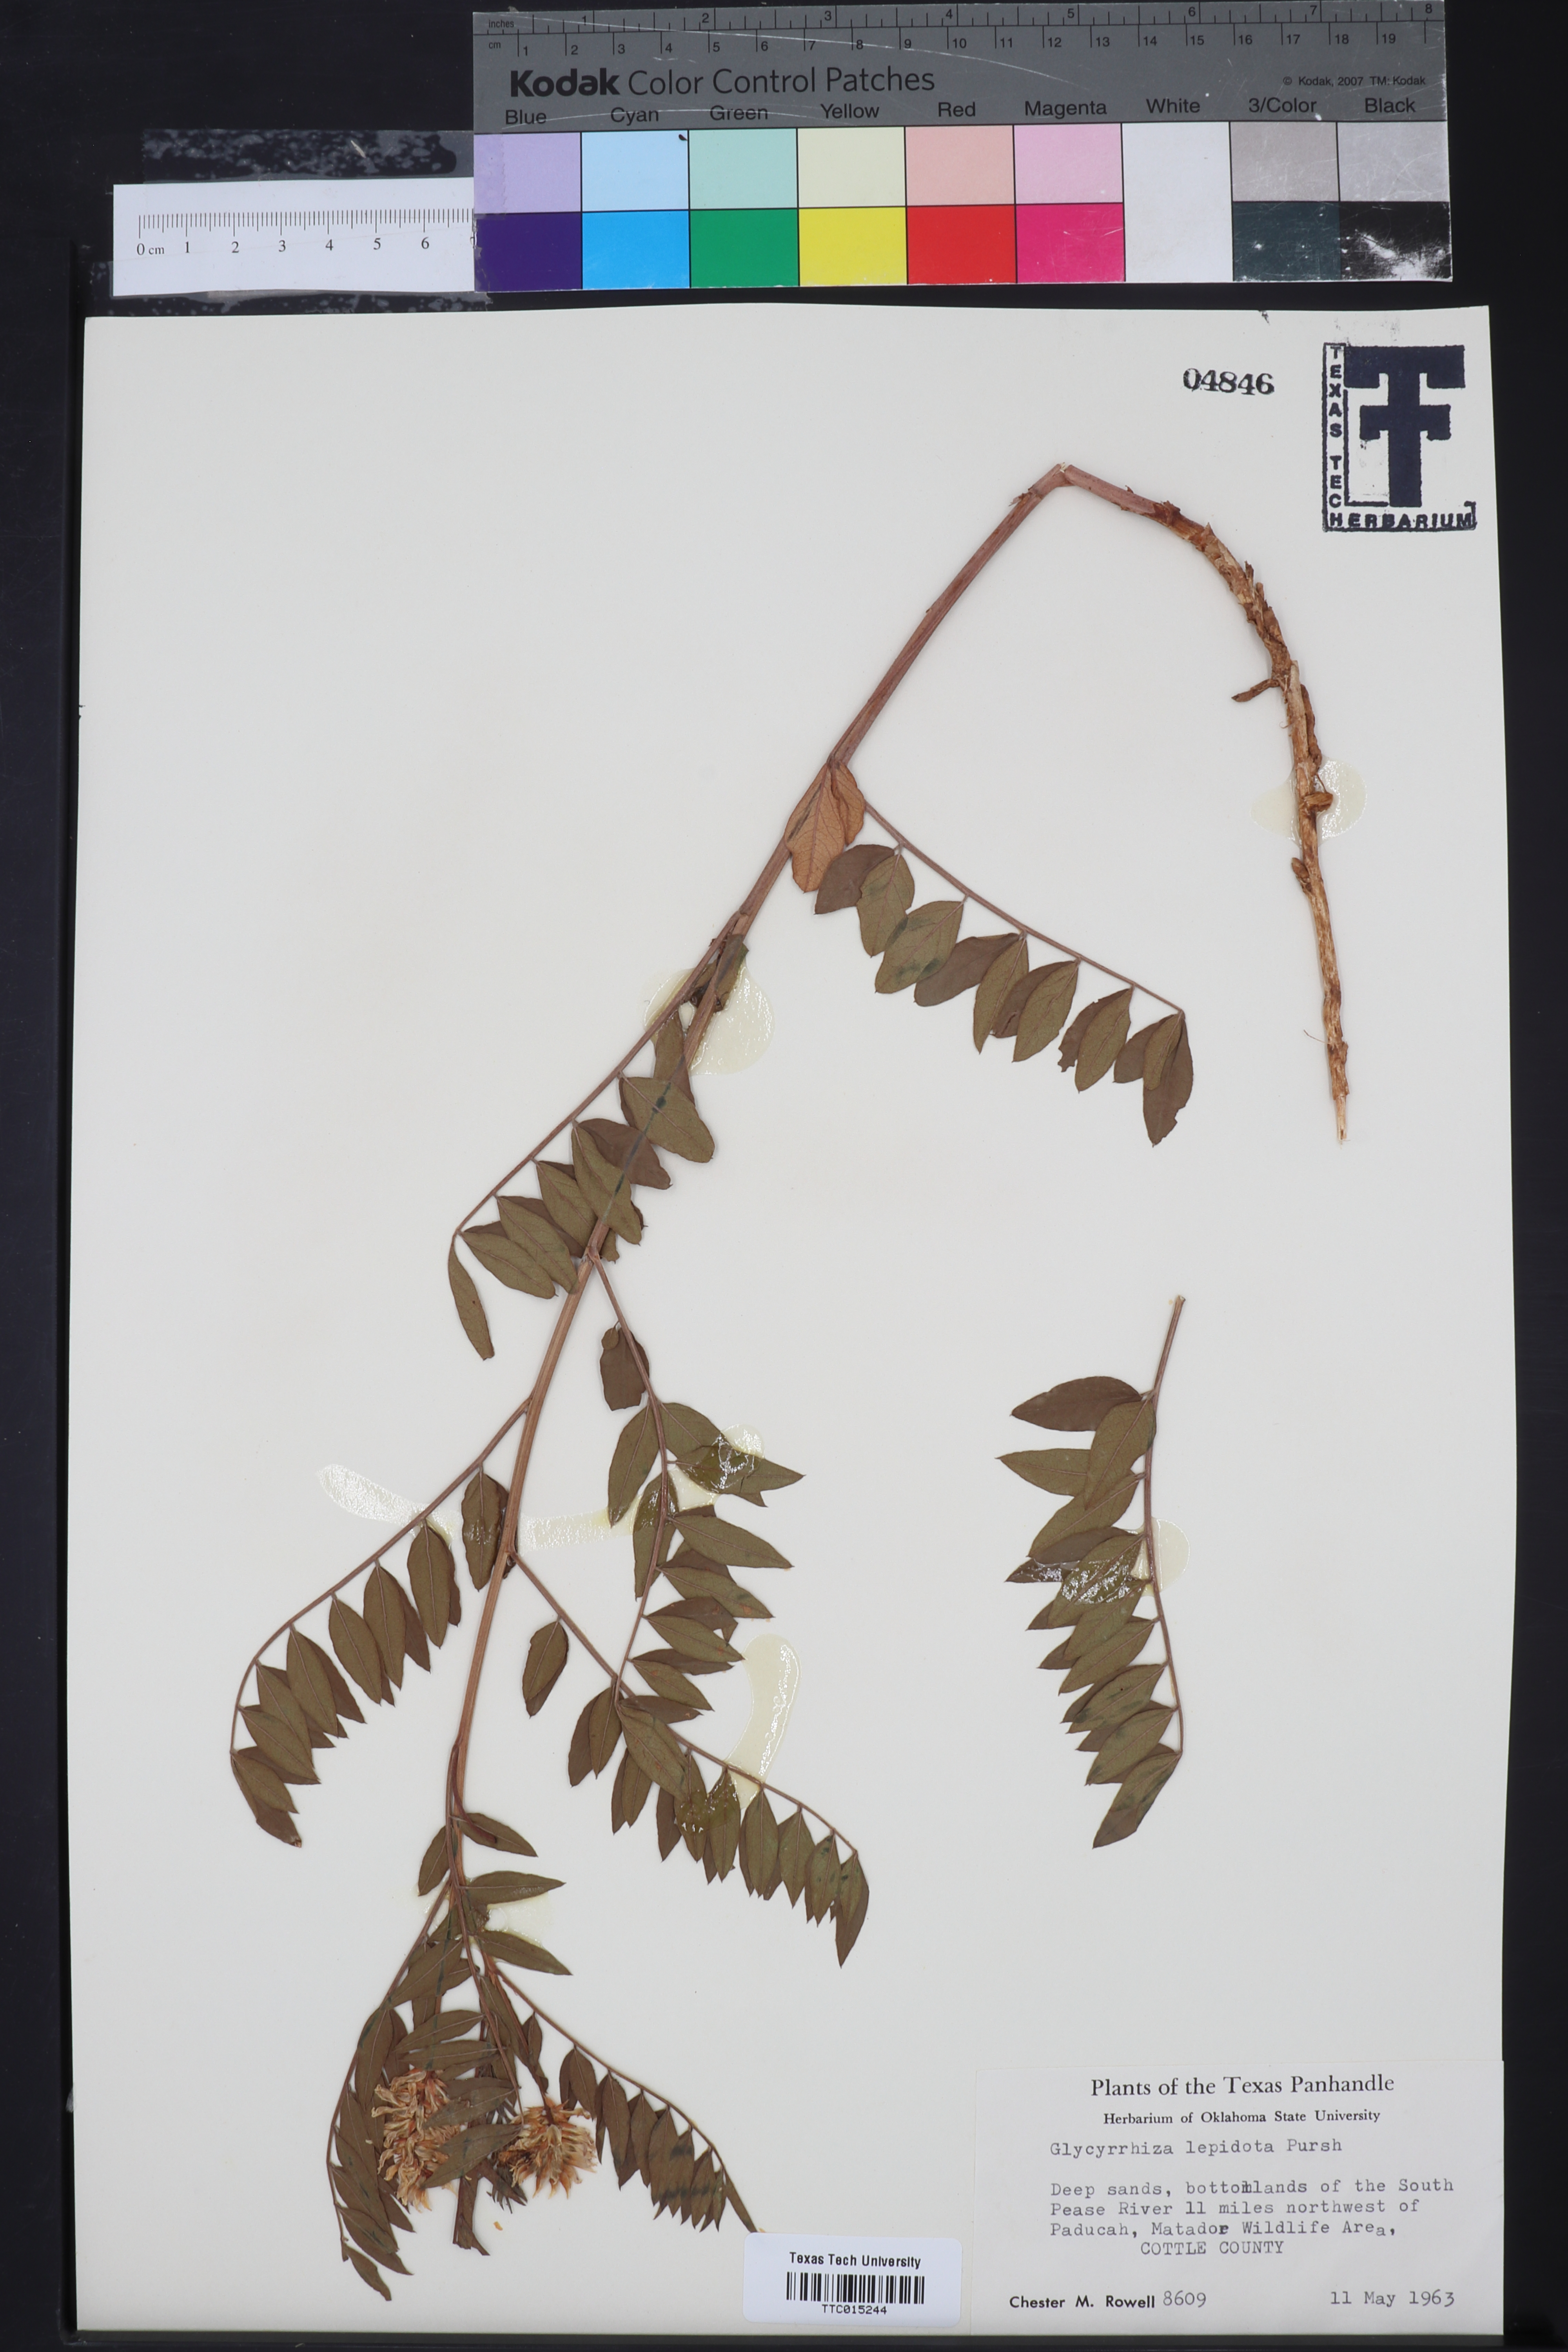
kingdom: Plantae
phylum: Tracheophyta
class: Magnoliopsida
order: Fabales
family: Fabaceae
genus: Glycyrrhiza
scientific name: Glycyrrhiza lepidota
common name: American liquorice
